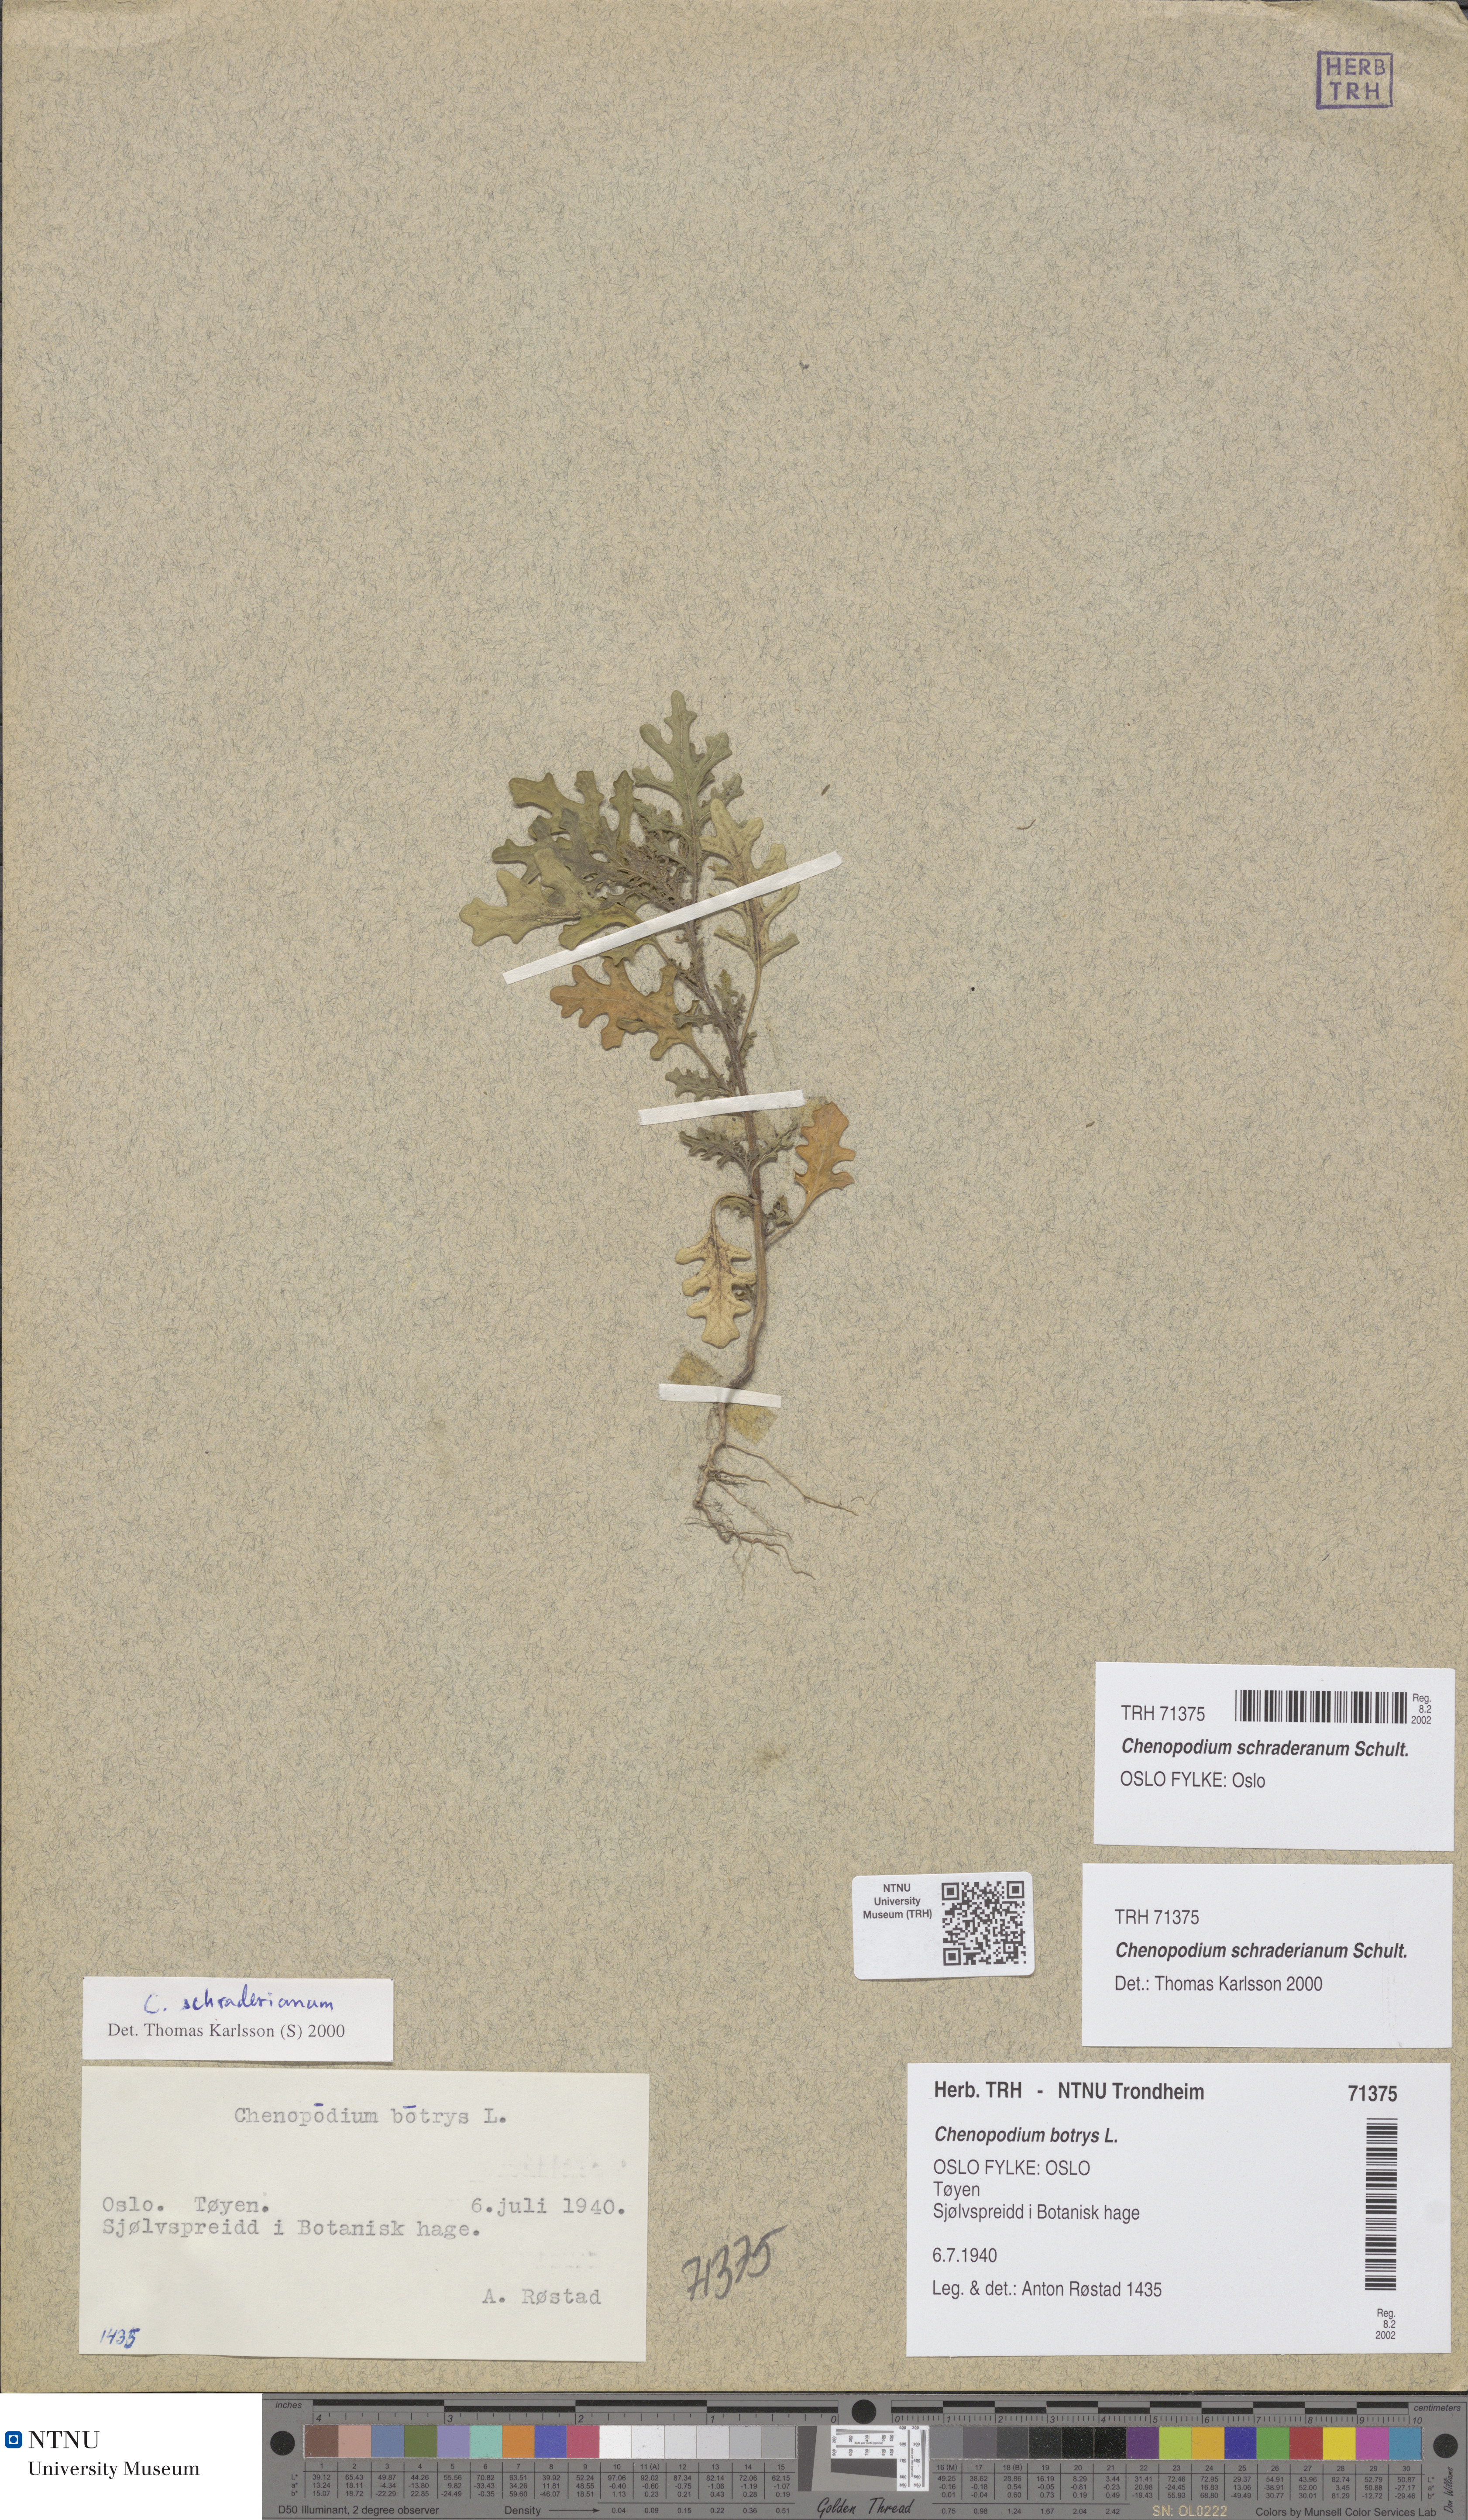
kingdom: Plantae
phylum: Tracheophyta
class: Magnoliopsida
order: Caryophyllales
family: Amaranthaceae
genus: Dysphania
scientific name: Dysphania schraderiana
